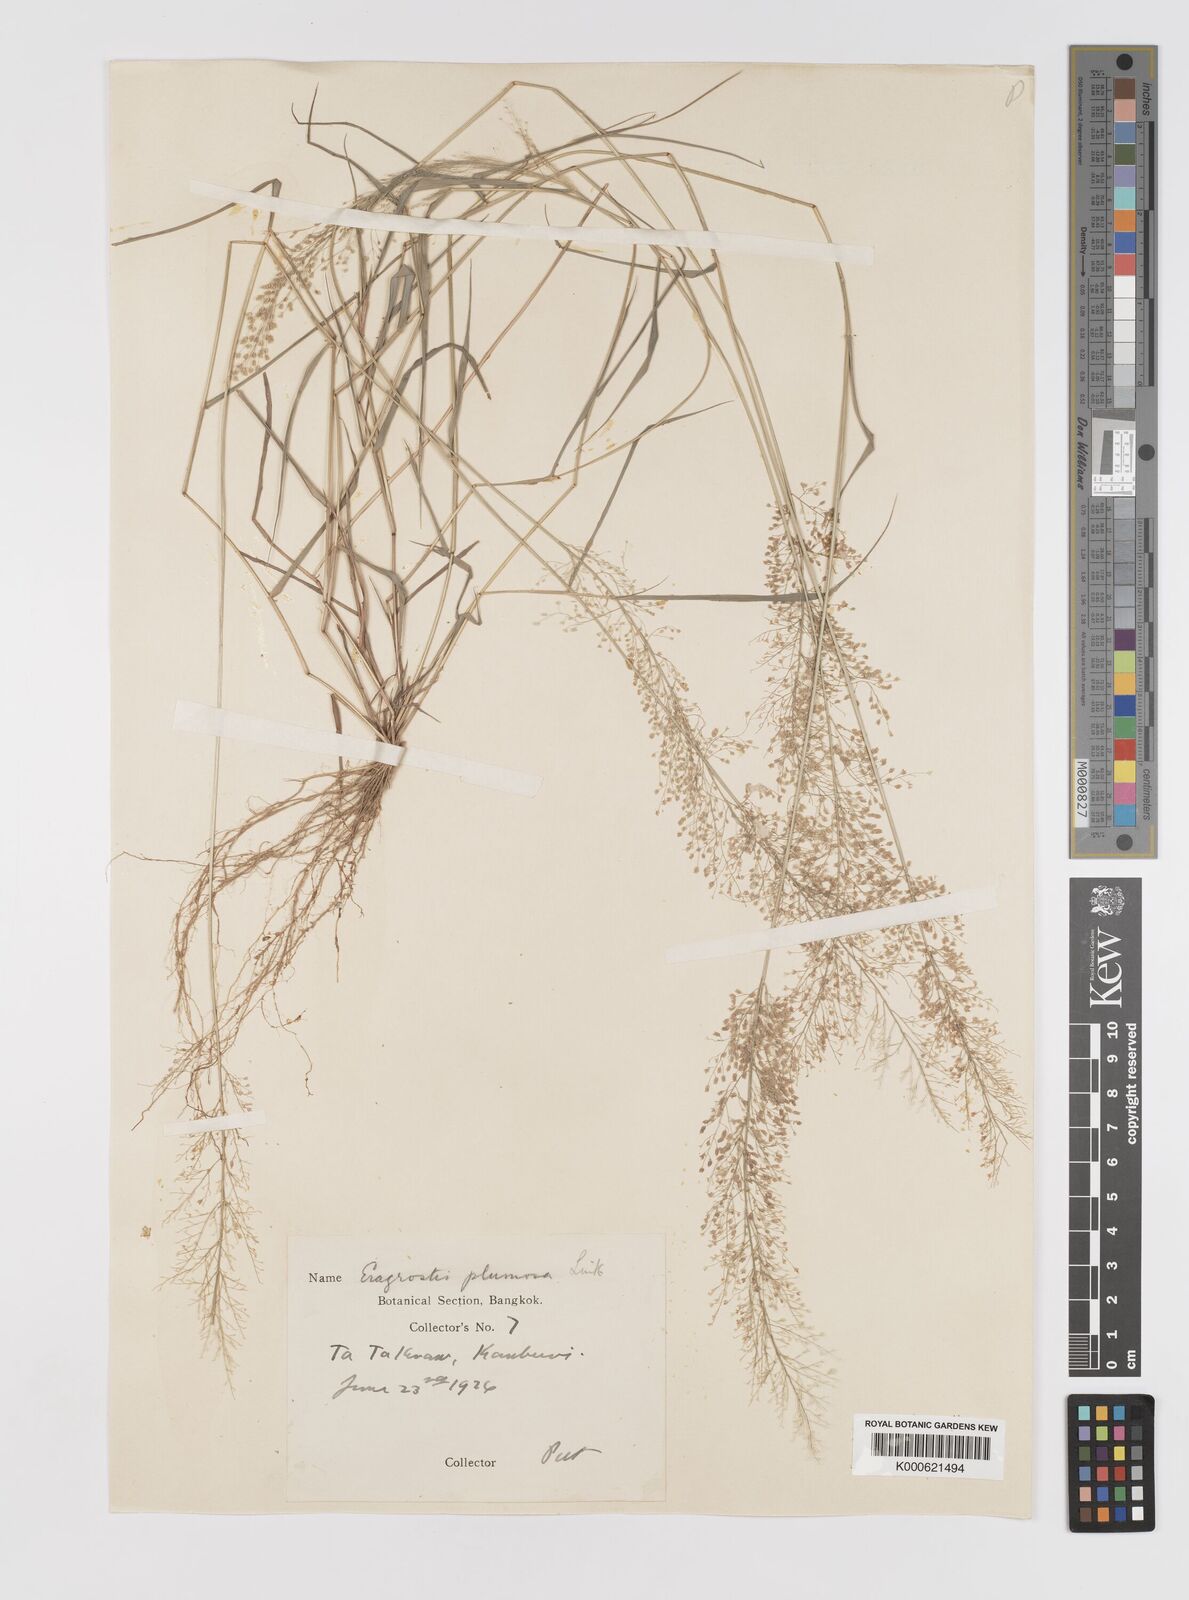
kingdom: Plantae
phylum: Tracheophyta
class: Liliopsida
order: Poales
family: Poaceae
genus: Eragrostis
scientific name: Eragrostis tenella
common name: Japanese lovegrass
